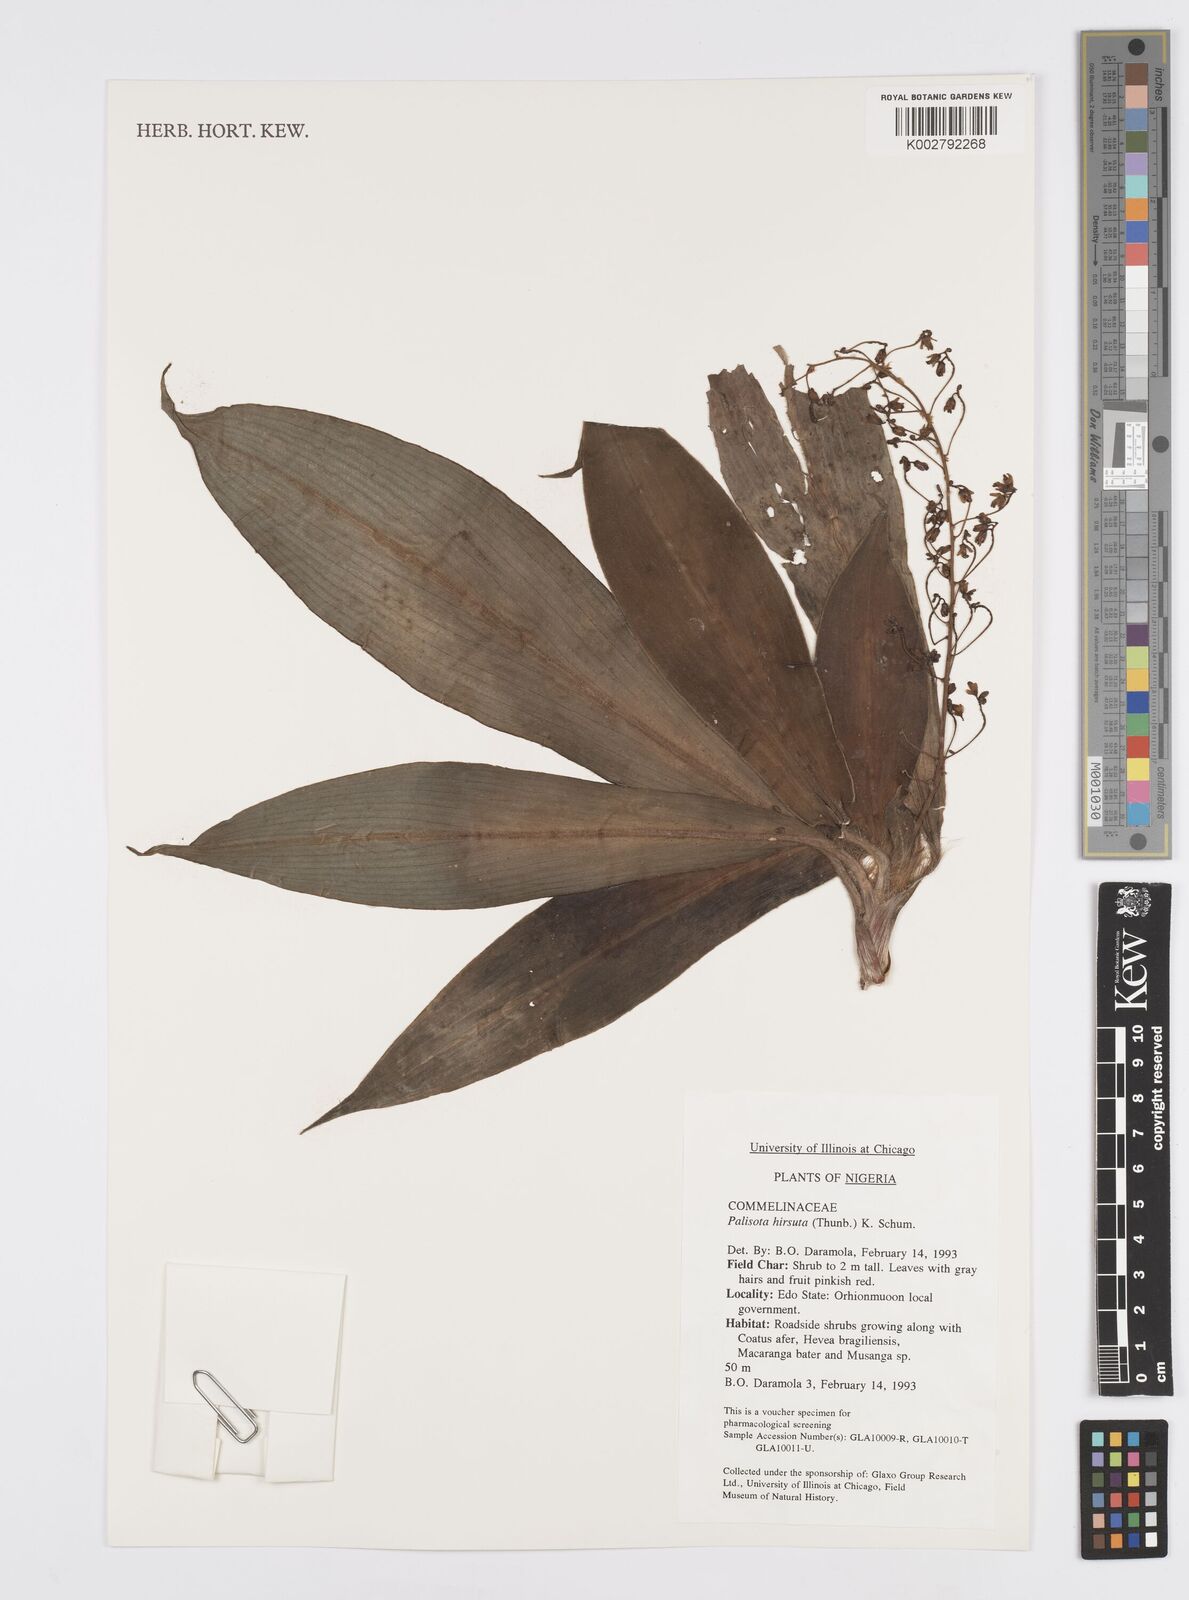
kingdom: Plantae
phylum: Tracheophyta
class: Liliopsida
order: Commelinales
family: Commelinaceae
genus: Palisota
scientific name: Palisota hirsuta
